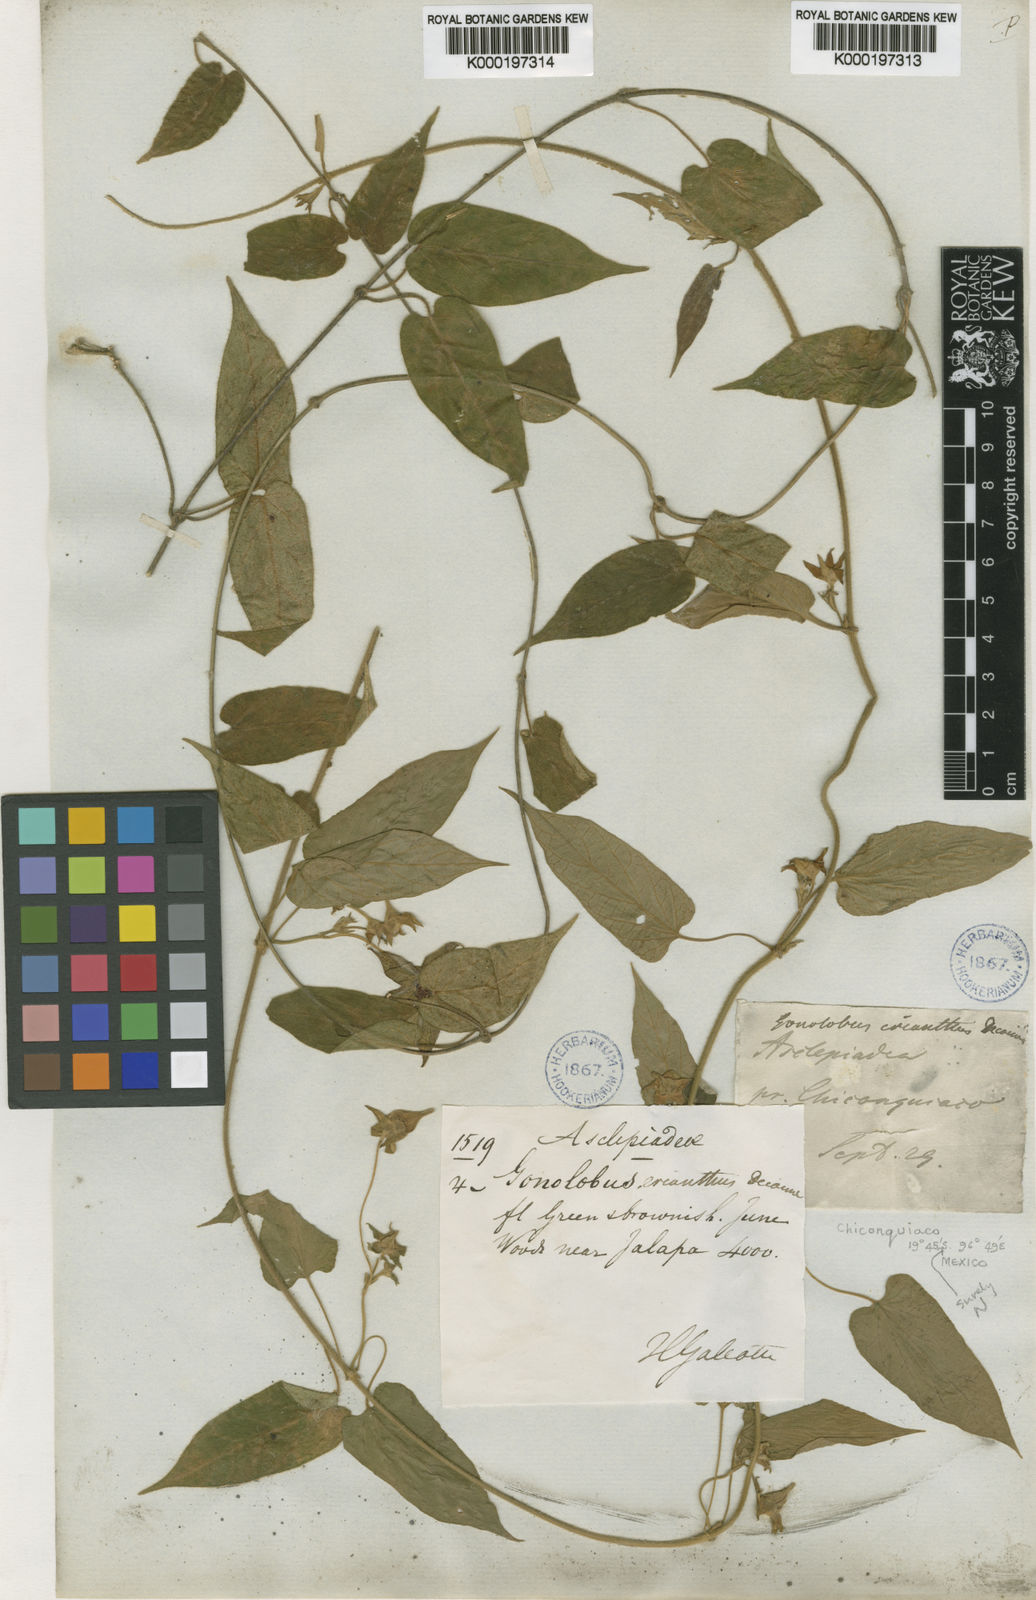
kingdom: Plantae
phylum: Tracheophyta
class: Magnoliopsida
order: Gentianales
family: Apocynaceae
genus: Gonolobus
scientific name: Gonolobus erianthus
